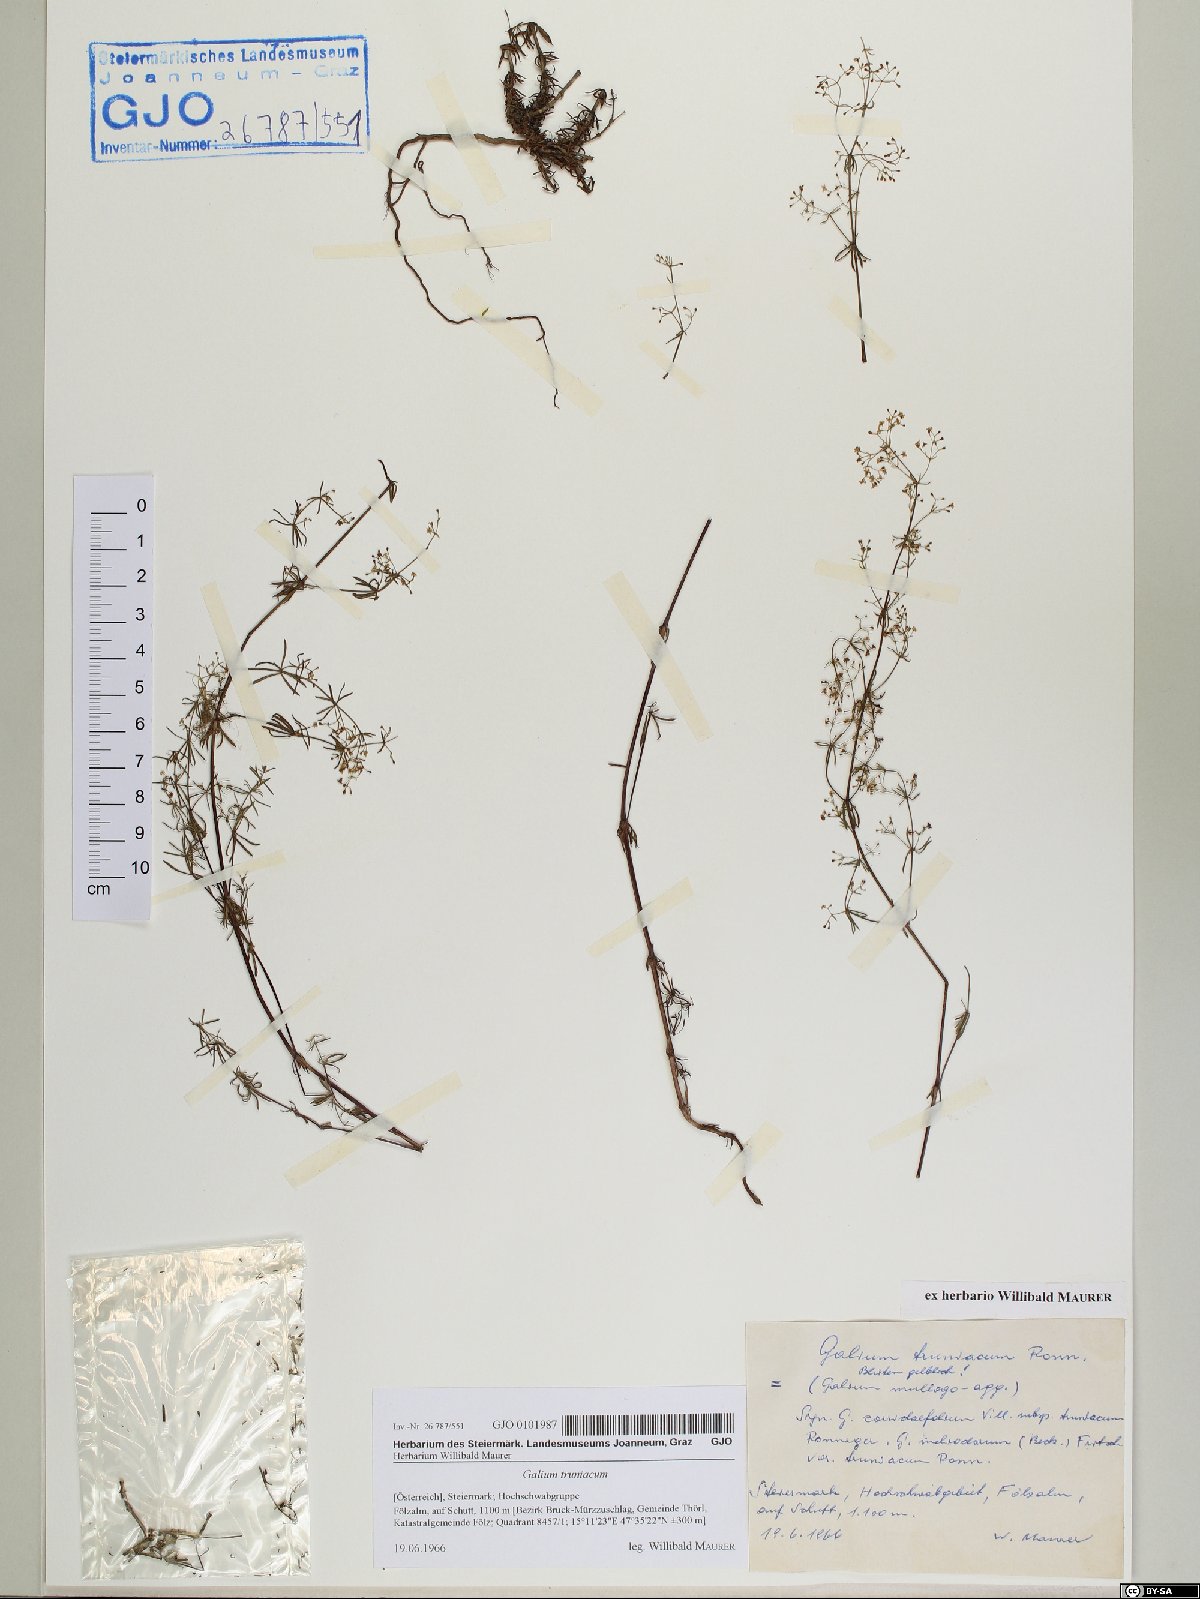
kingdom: Plantae
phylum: Tracheophyta
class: Magnoliopsida
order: Gentianales
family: Rubiaceae
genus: Galium
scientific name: Galium truniacum
